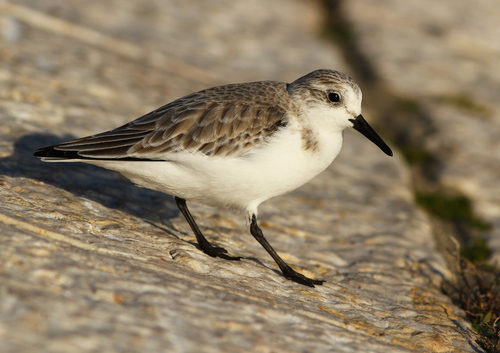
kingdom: Animalia
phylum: Chordata
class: Aves
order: Charadriiformes
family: Scolopacidae
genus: Calidris
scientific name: Calidris alba
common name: Sanderling
